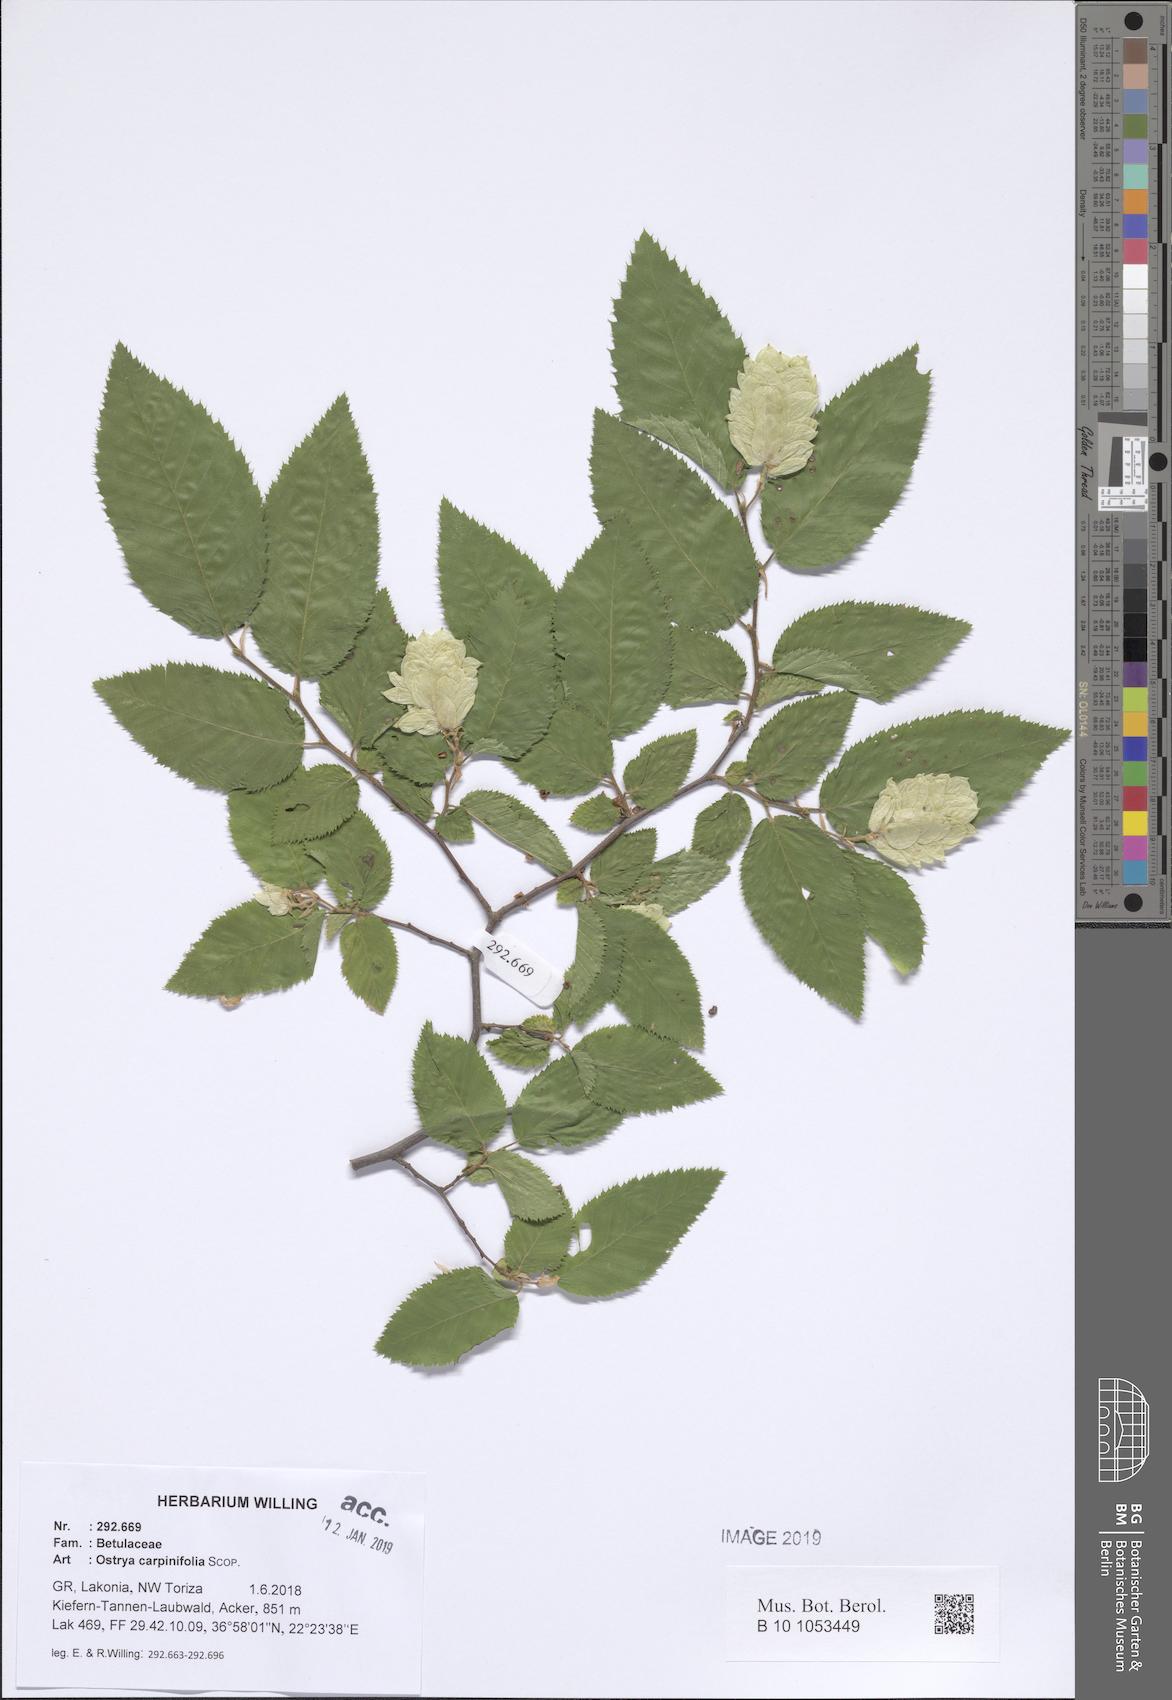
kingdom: Plantae
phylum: Tracheophyta
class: Magnoliopsida
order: Fagales
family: Betulaceae
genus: Ostrya
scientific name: Ostrya carpinifolia
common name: European hop-hornbeam
